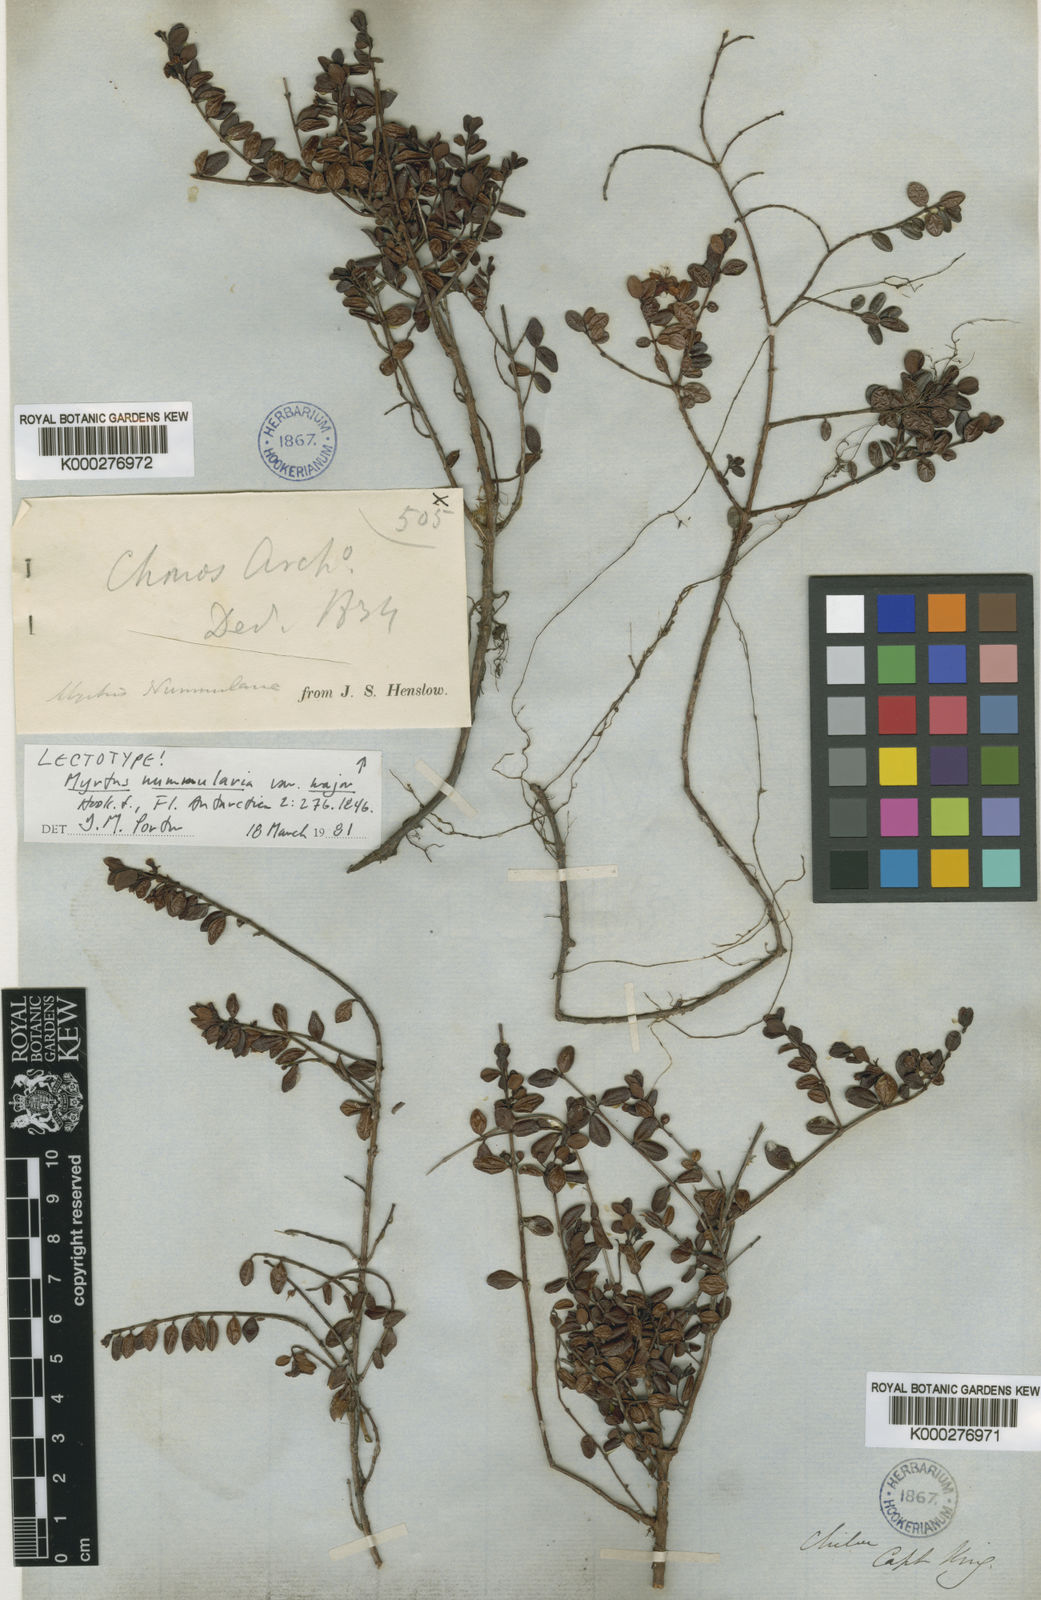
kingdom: Plantae
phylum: Tracheophyta
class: Magnoliopsida
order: Myrtales
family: Myrtaceae
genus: Myrteola
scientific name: Myrteola nummularia
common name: Cranberry-myrtle
